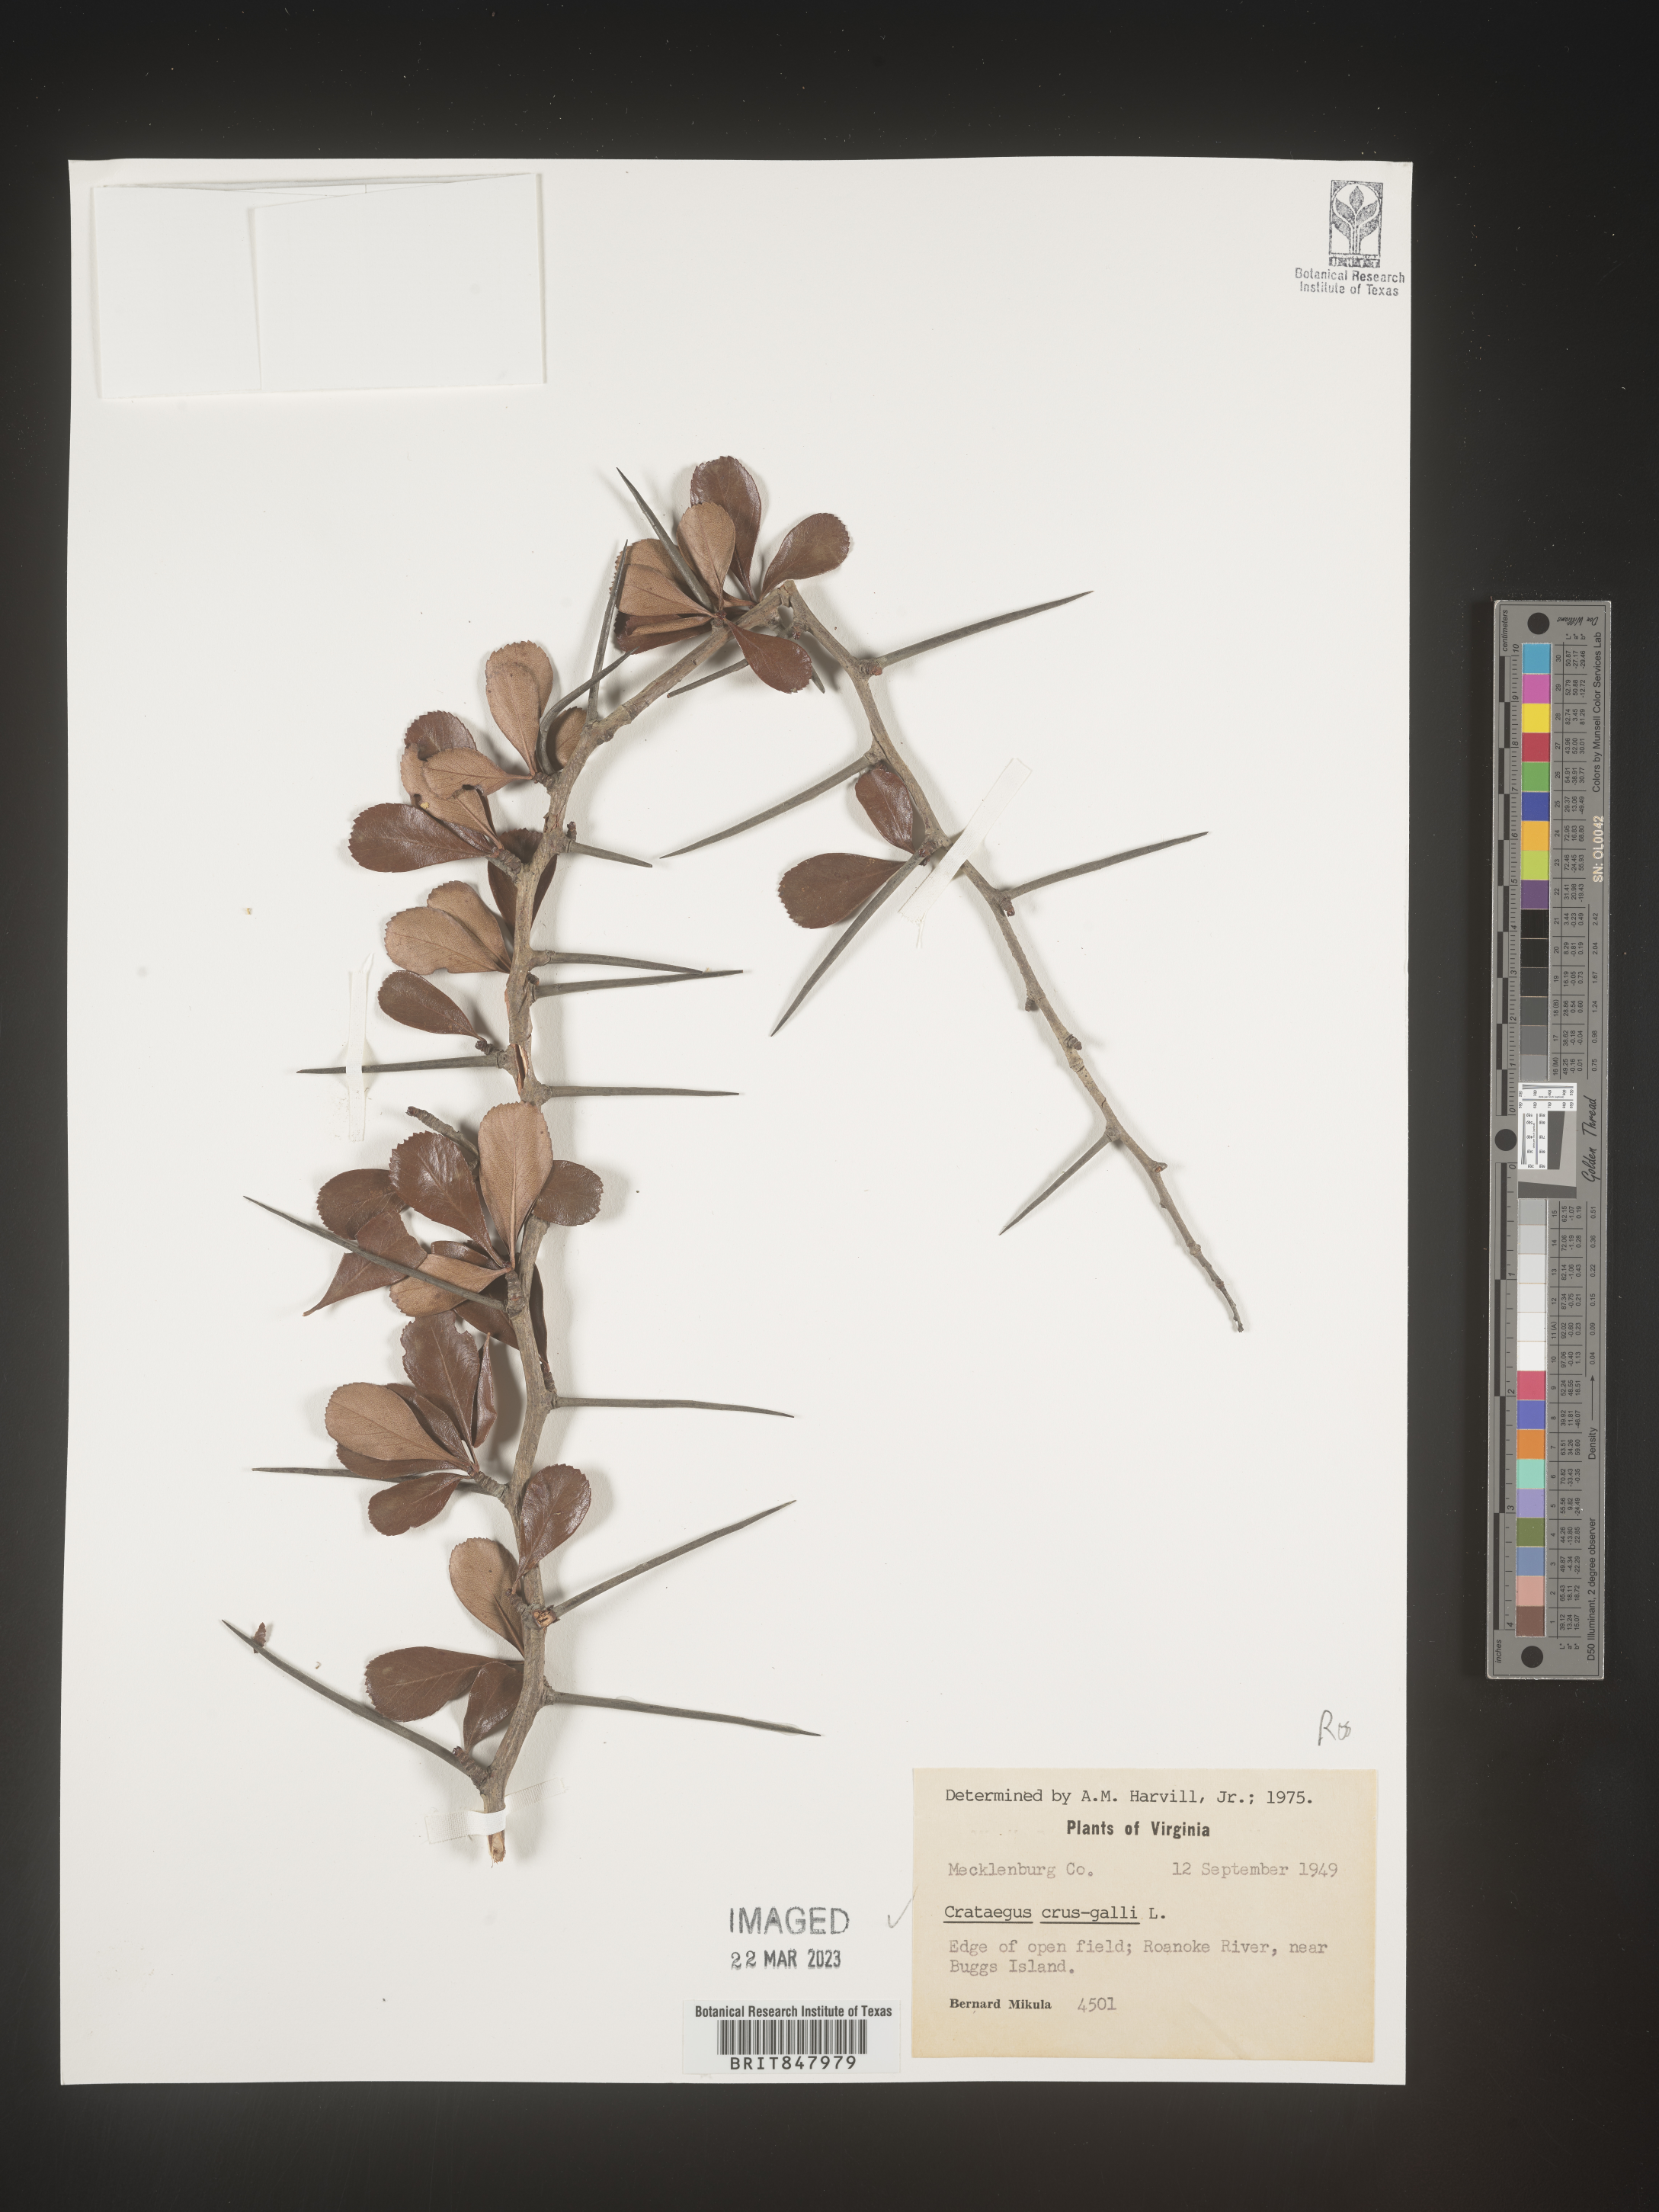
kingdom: Plantae
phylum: Tracheophyta
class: Magnoliopsida
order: Rosales
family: Rosaceae
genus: Crataegus
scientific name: Crataegus crus-galli
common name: Cockspurthorn
